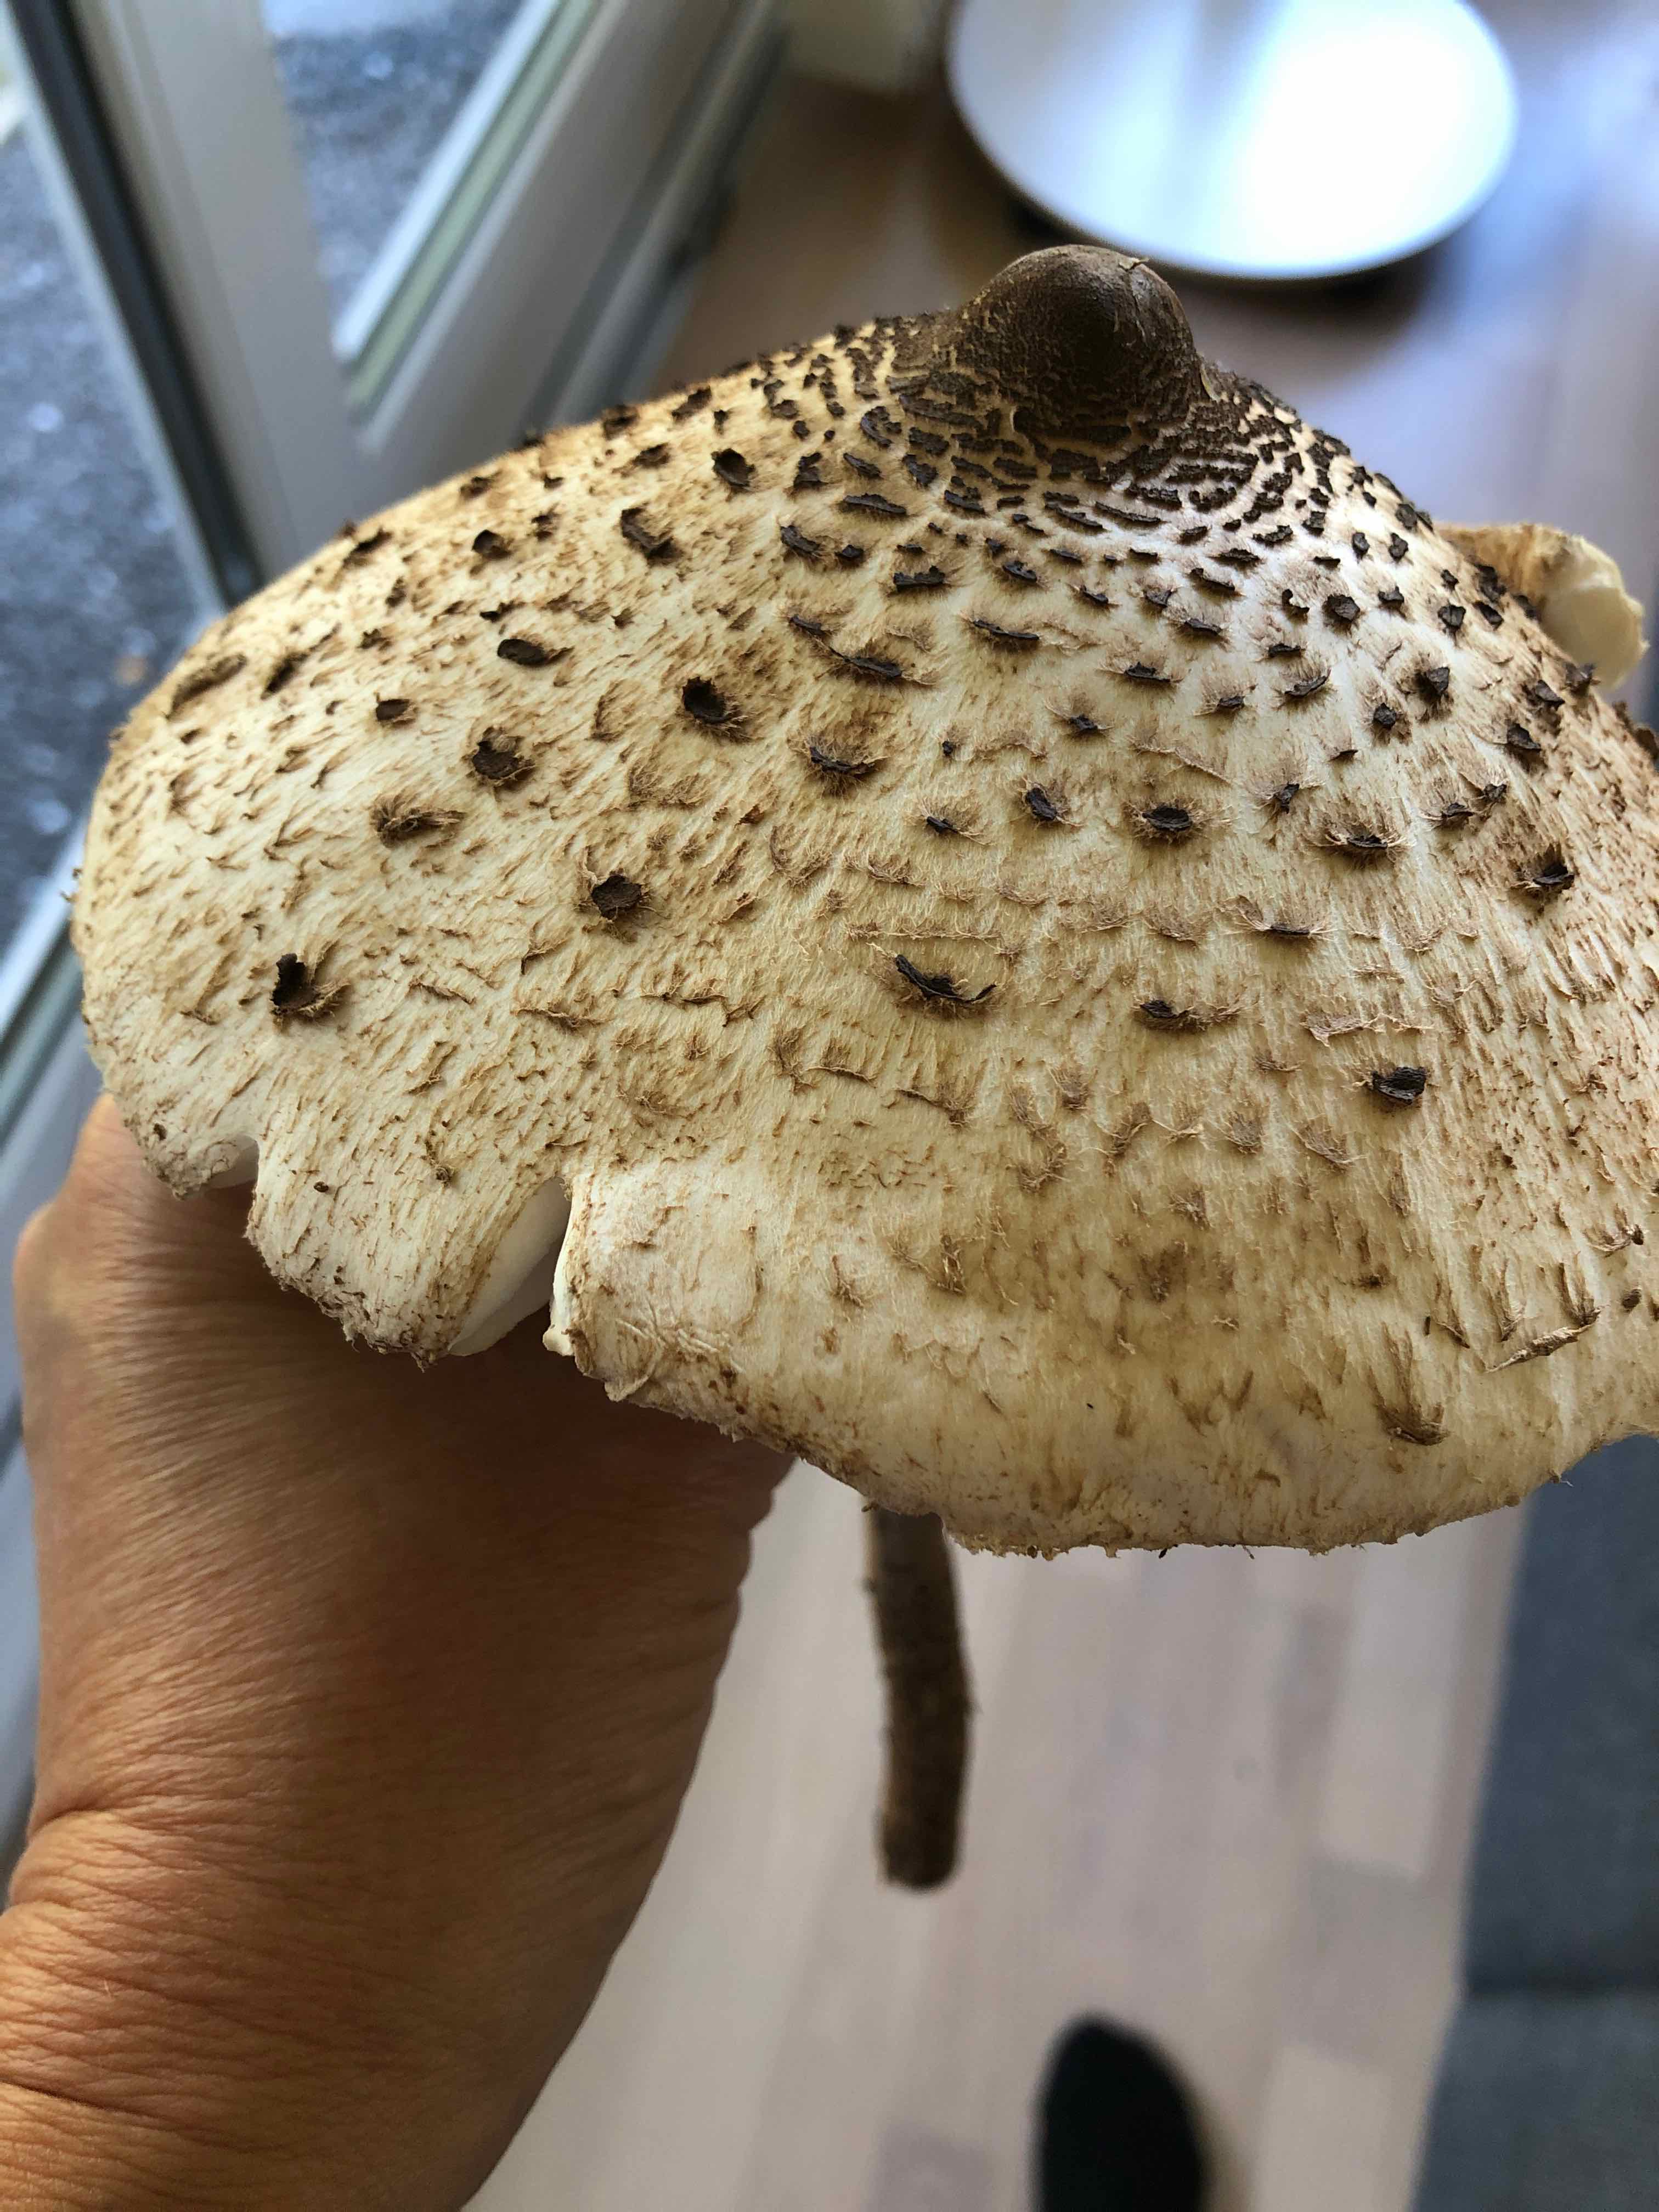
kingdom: Fungi
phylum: Basidiomycota
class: Agaricomycetes
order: Agaricales
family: Agaricaceae
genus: Macrolepiota
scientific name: Macrolepiota procera
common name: stor kæmpeparasolhat
